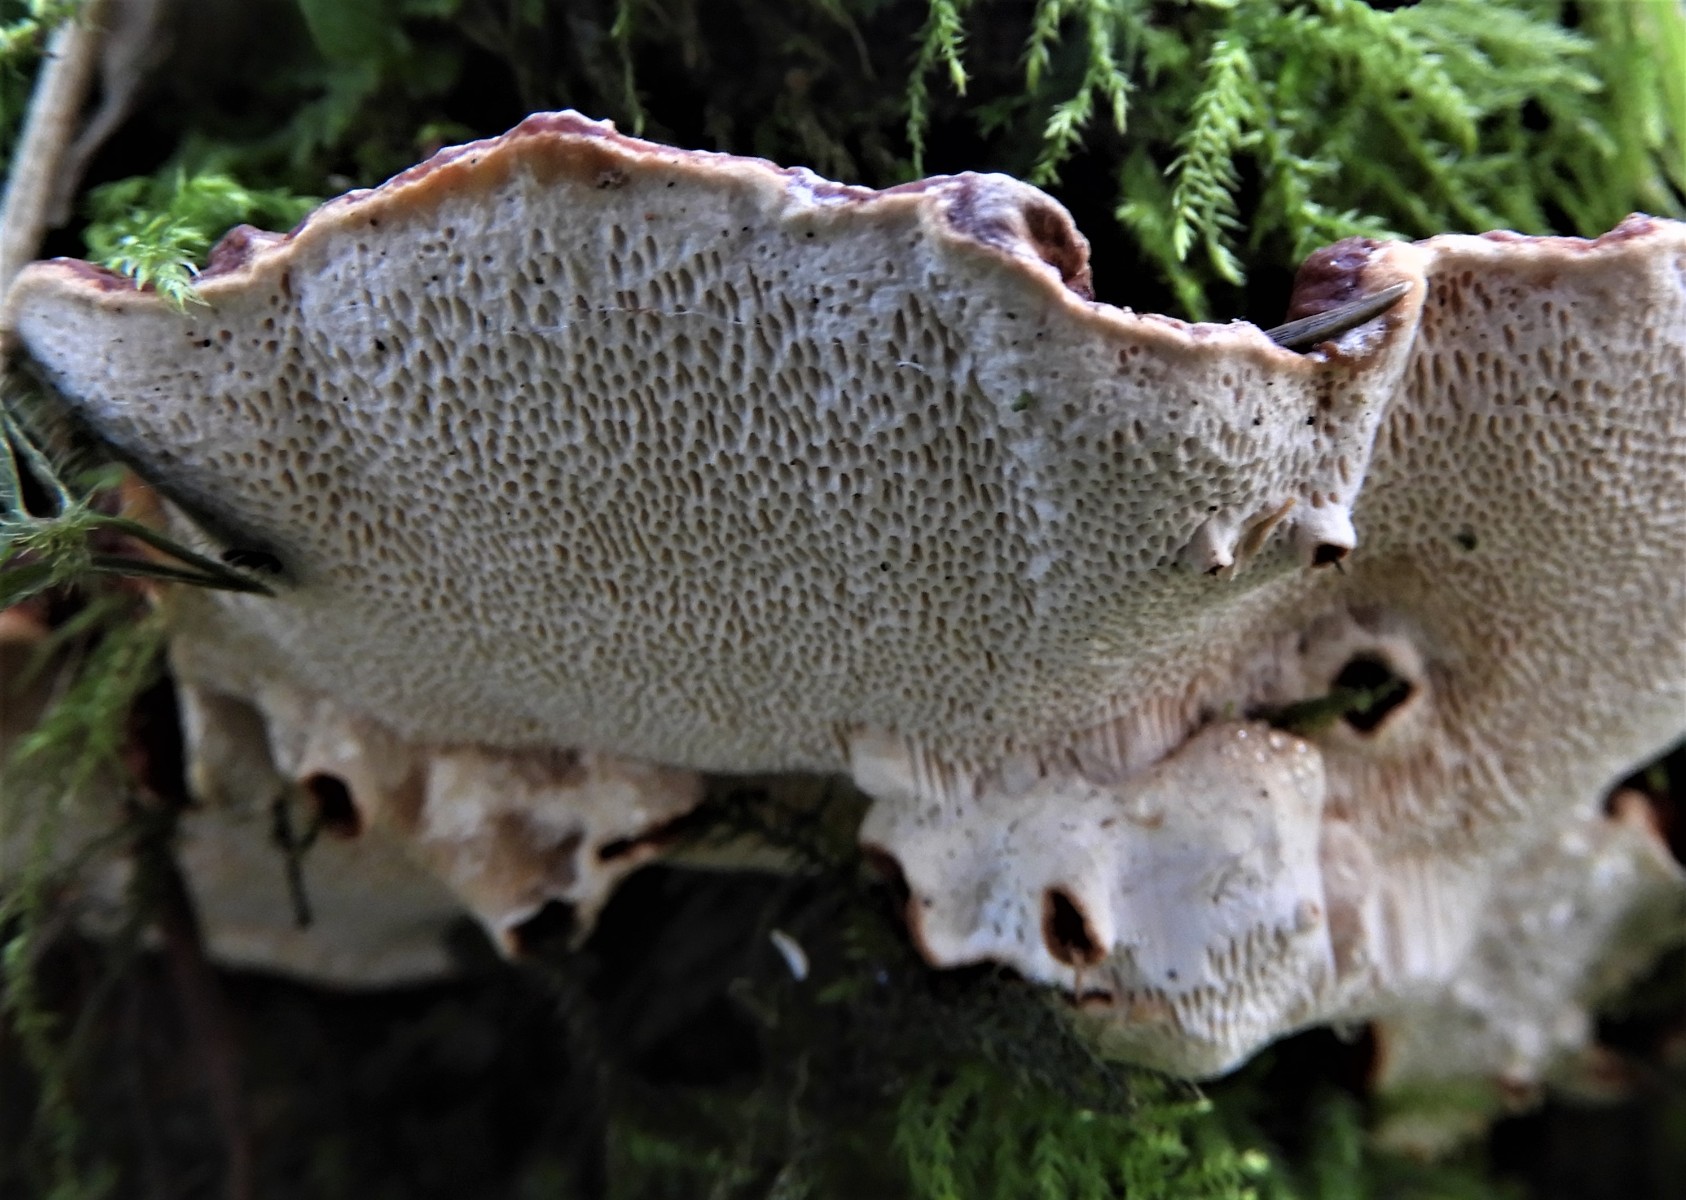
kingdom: Fungi
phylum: Basidiomycota
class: Agaricomycetes
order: Russulales
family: Bondarzewiaceae
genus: Heterobasidion
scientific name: Heterobasidion annosum
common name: almindelig rodfordærver
